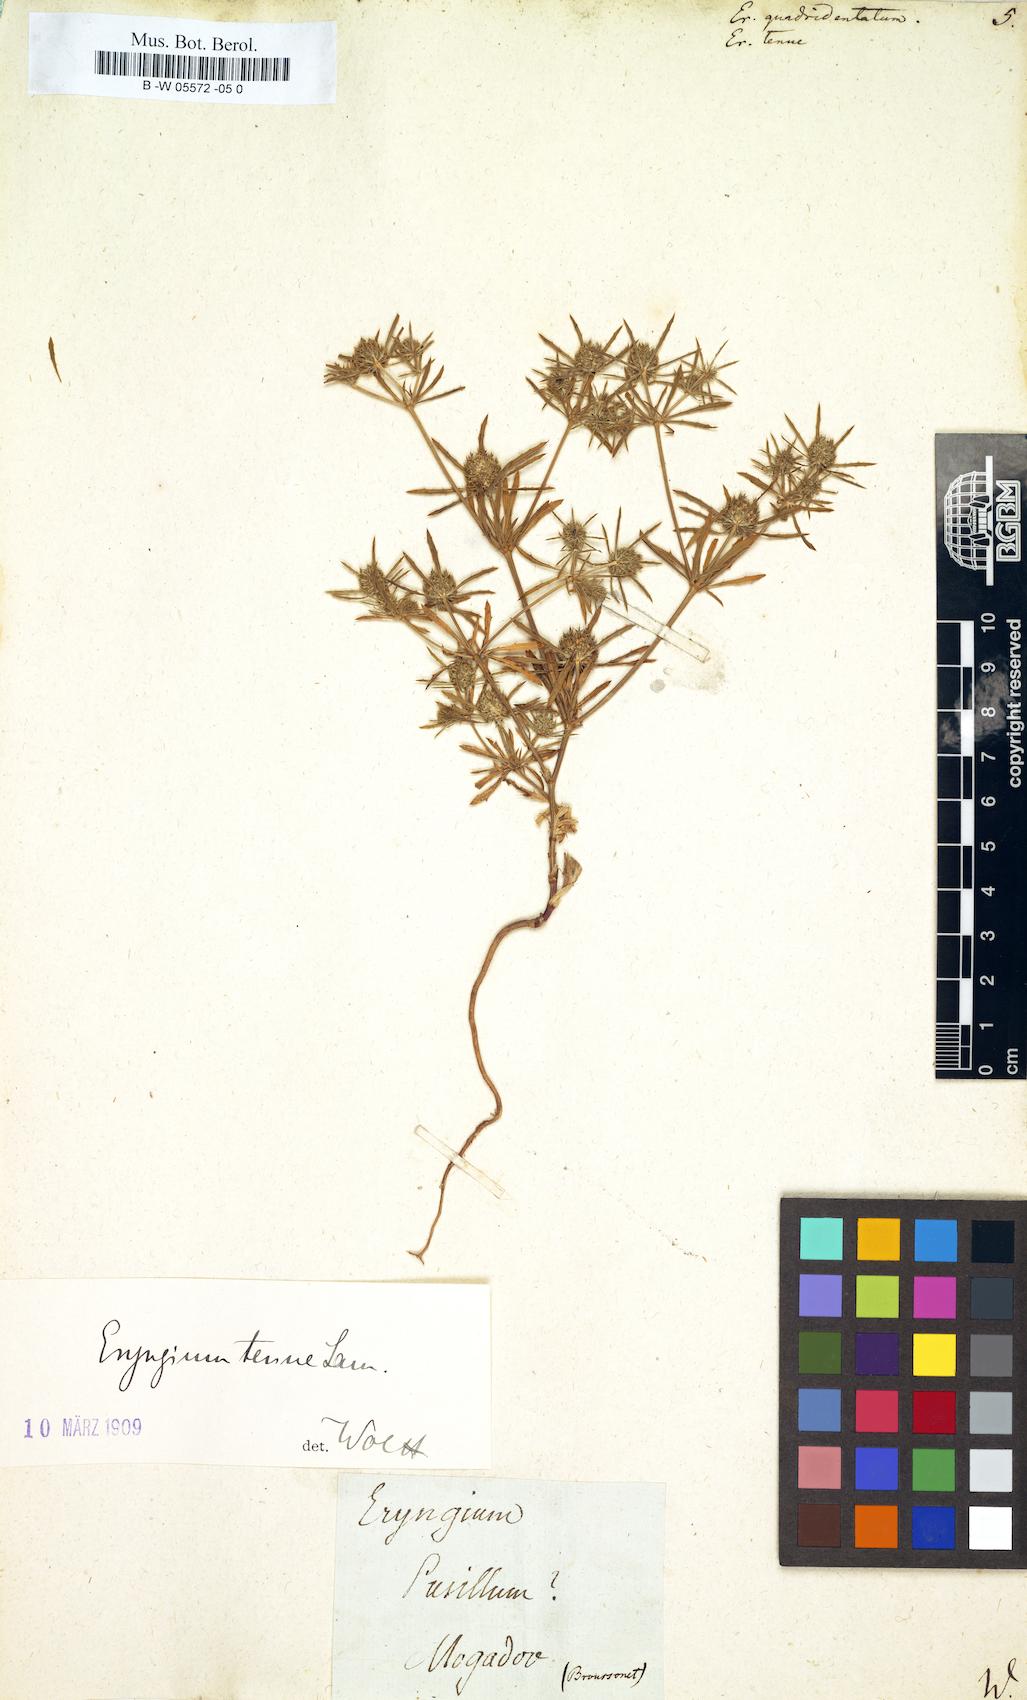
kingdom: Plantae
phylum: Tracheophyta
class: Magnoliopsida
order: Apiales
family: Apiaceae
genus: Eryngium
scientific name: Eryngium
